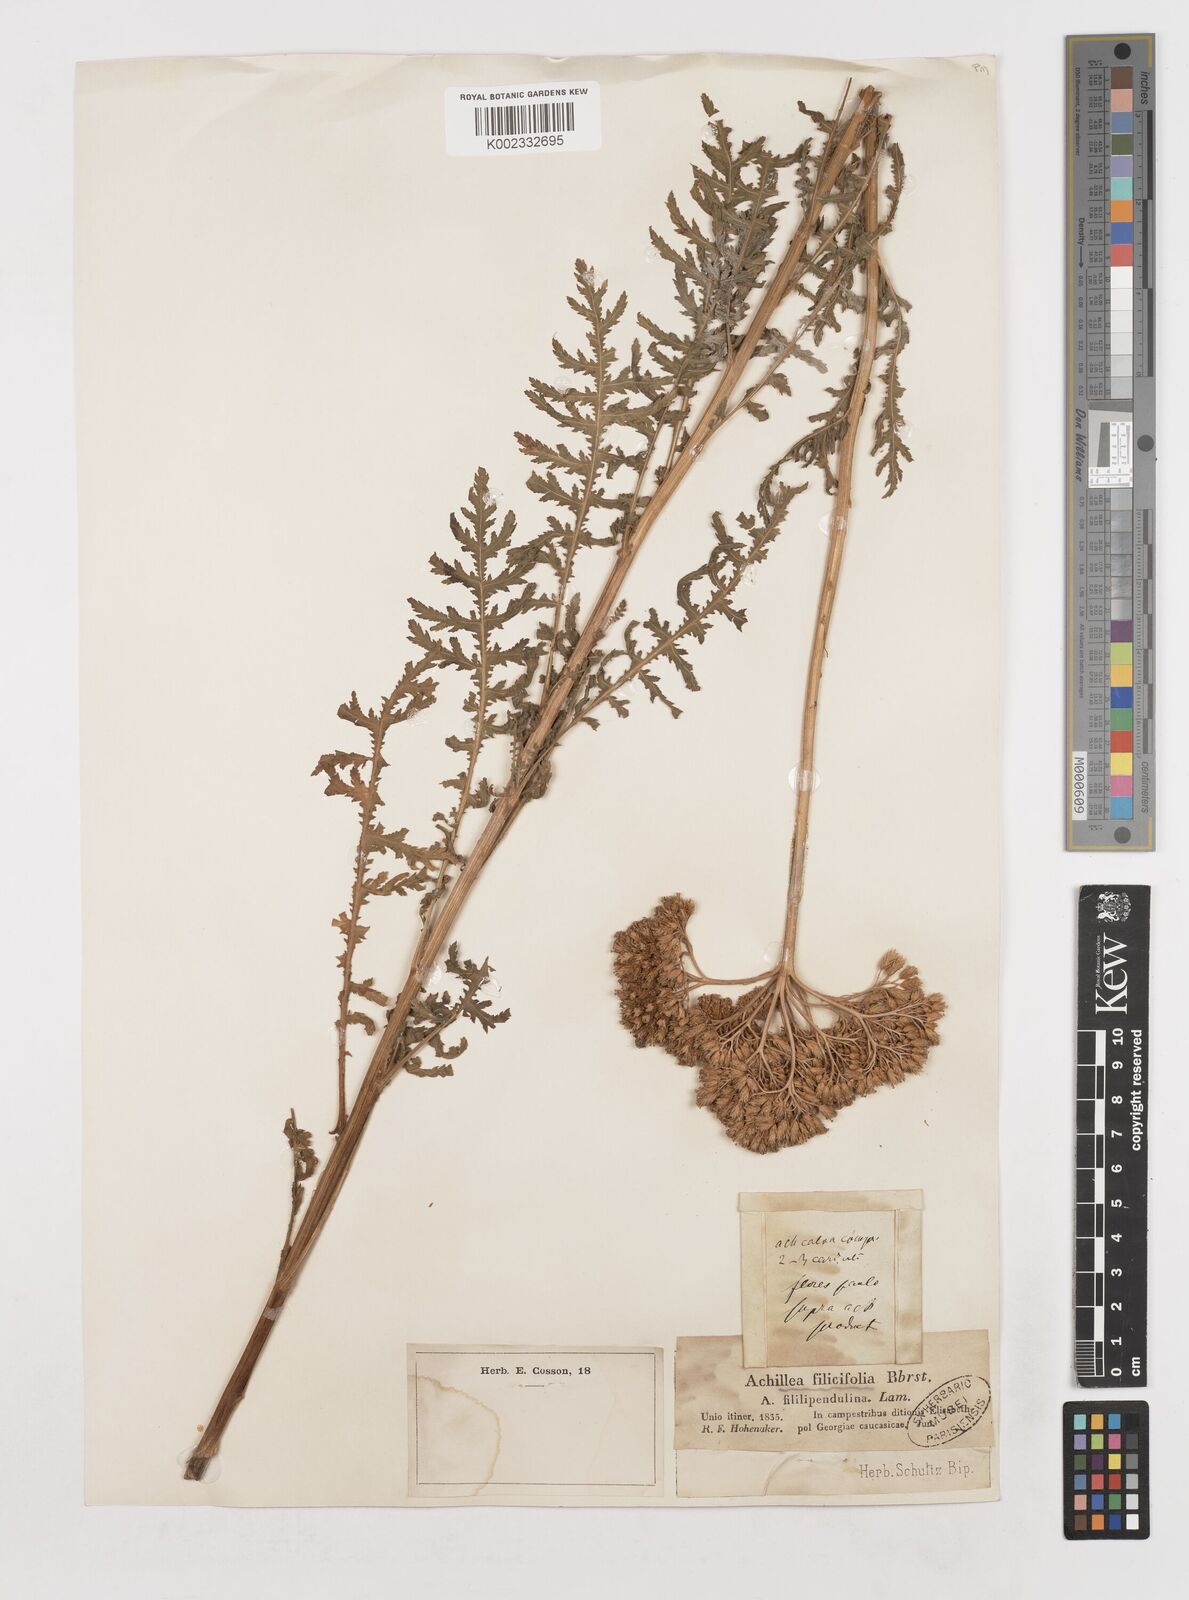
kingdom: Plantae
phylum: Tracheophyta
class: Magnoliopsida
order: Asterales
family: Asteraceae
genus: Achillea
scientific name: Achillea filipendulina
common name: Fernleaf yarrow
